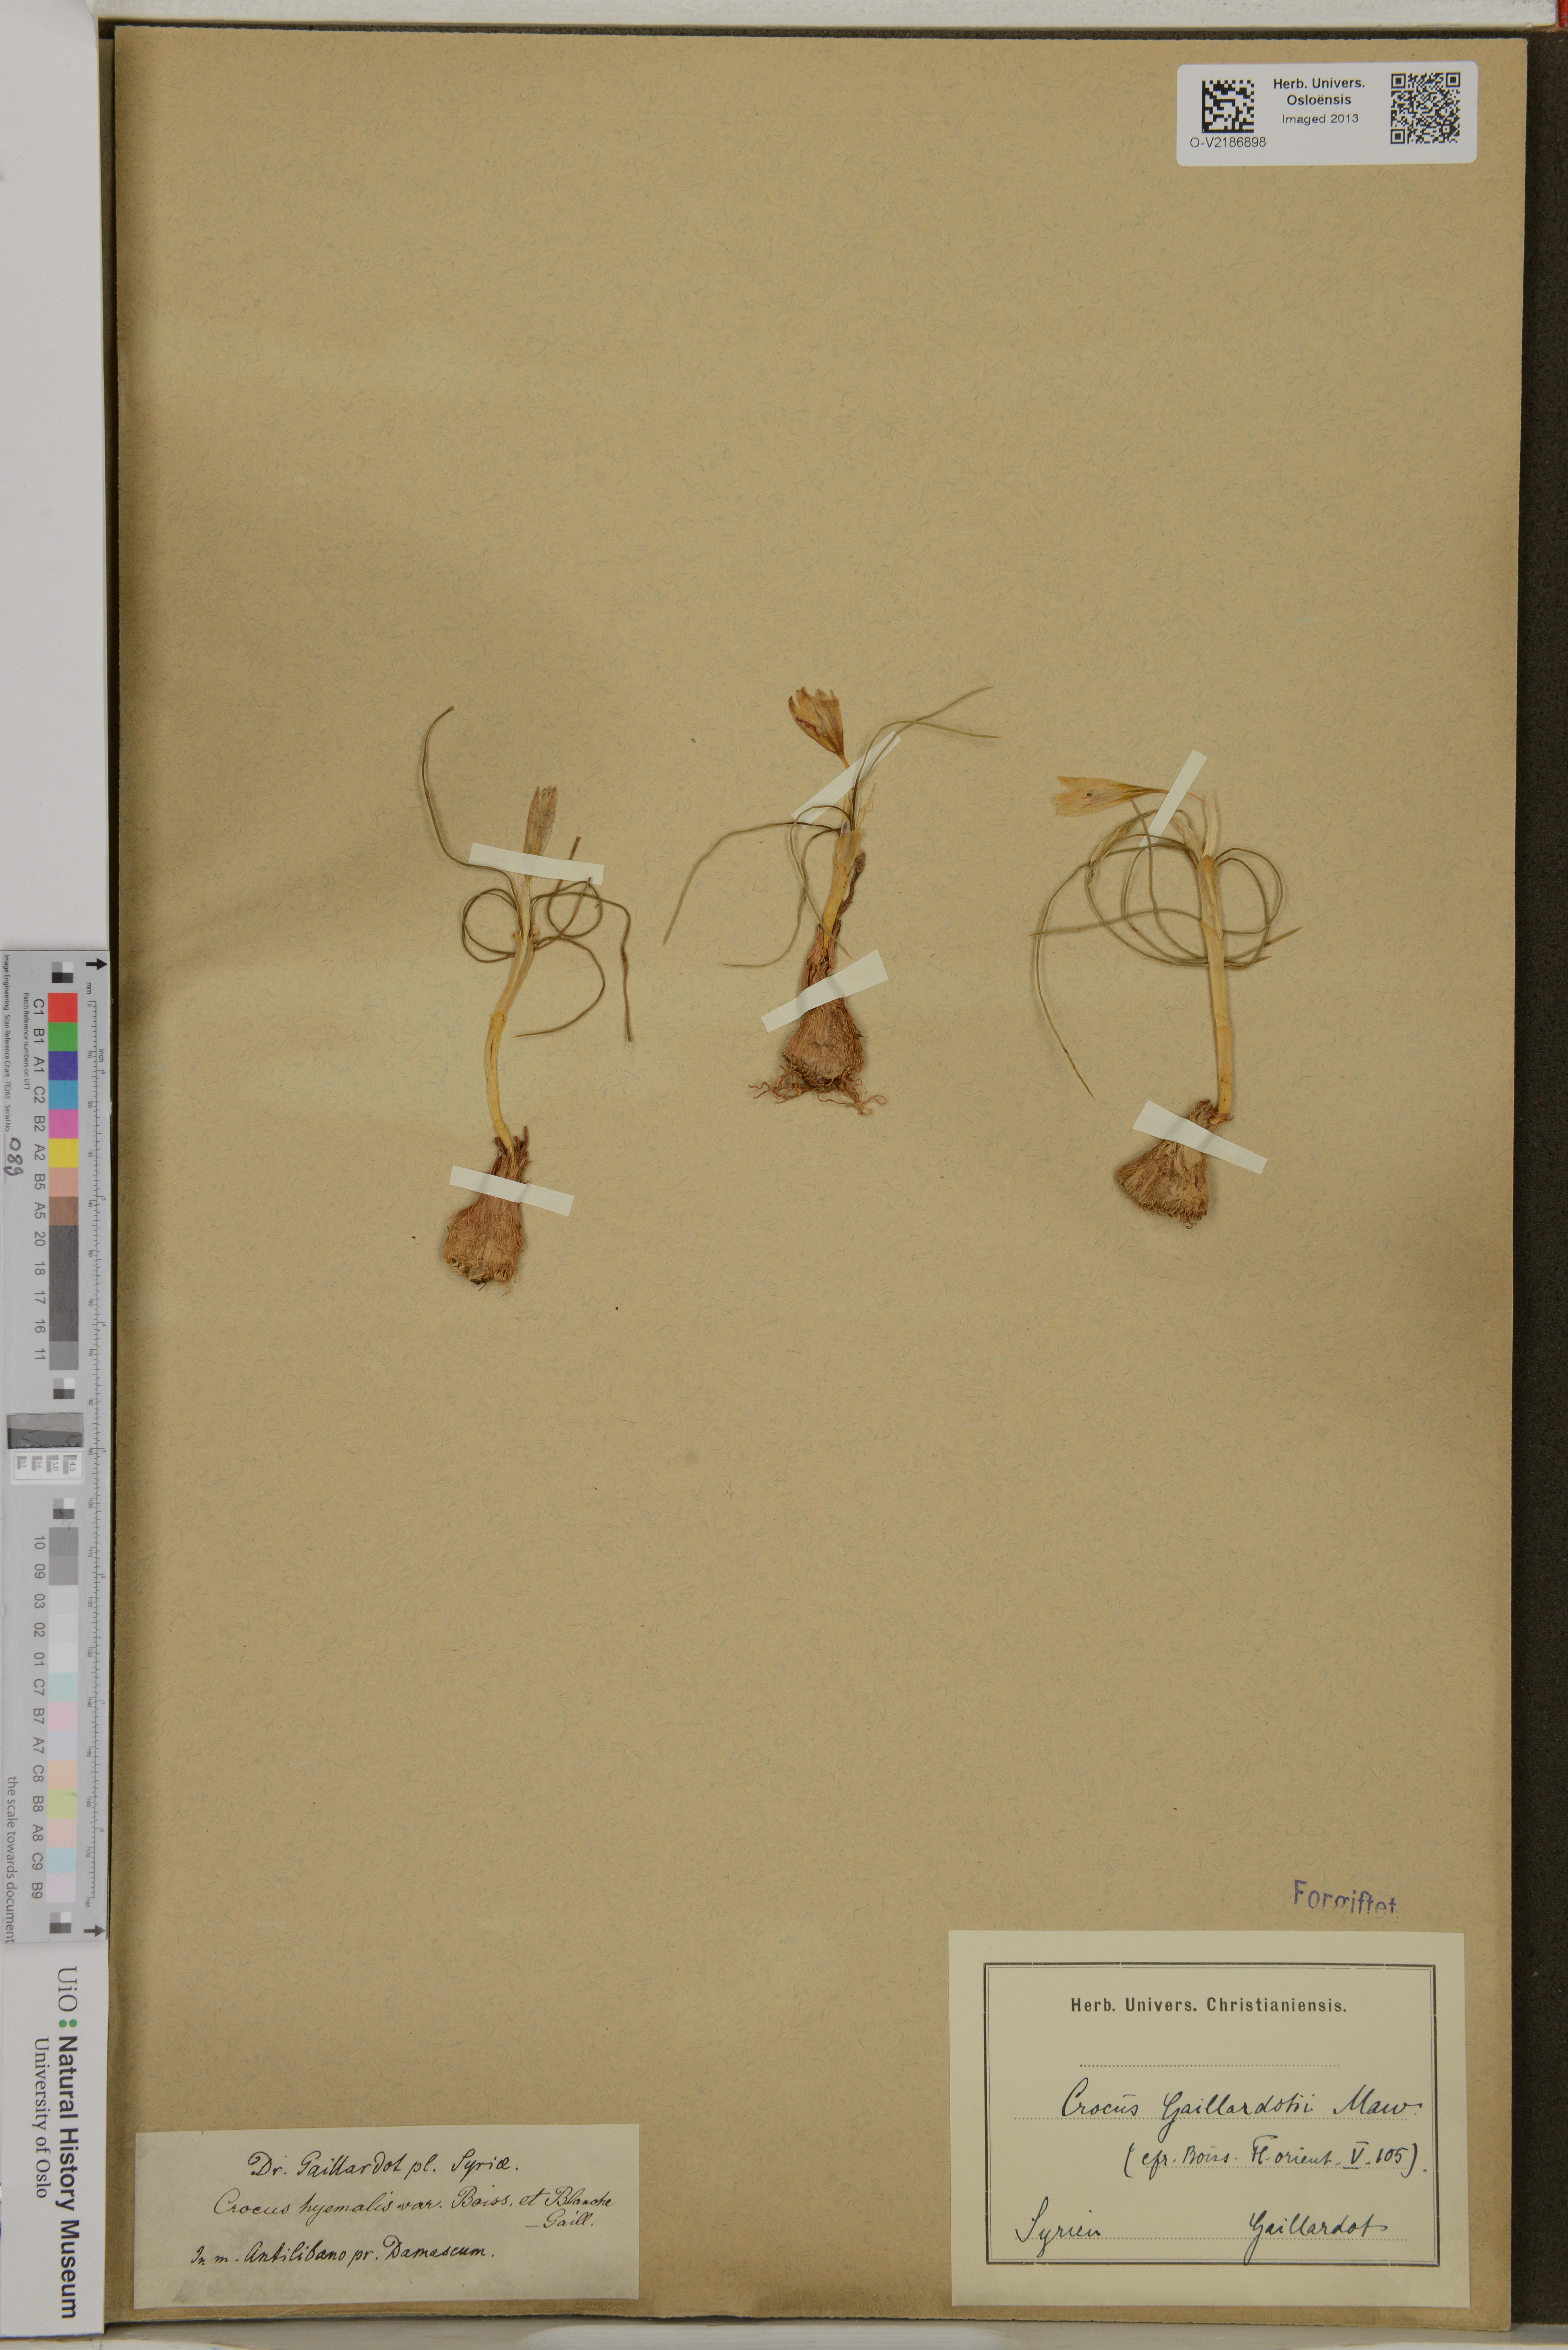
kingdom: Plantae
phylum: Tracheophyta
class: Liliopsida
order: Asparagales
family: Iridaceae
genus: Crocus
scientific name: Crocus aleppicus
